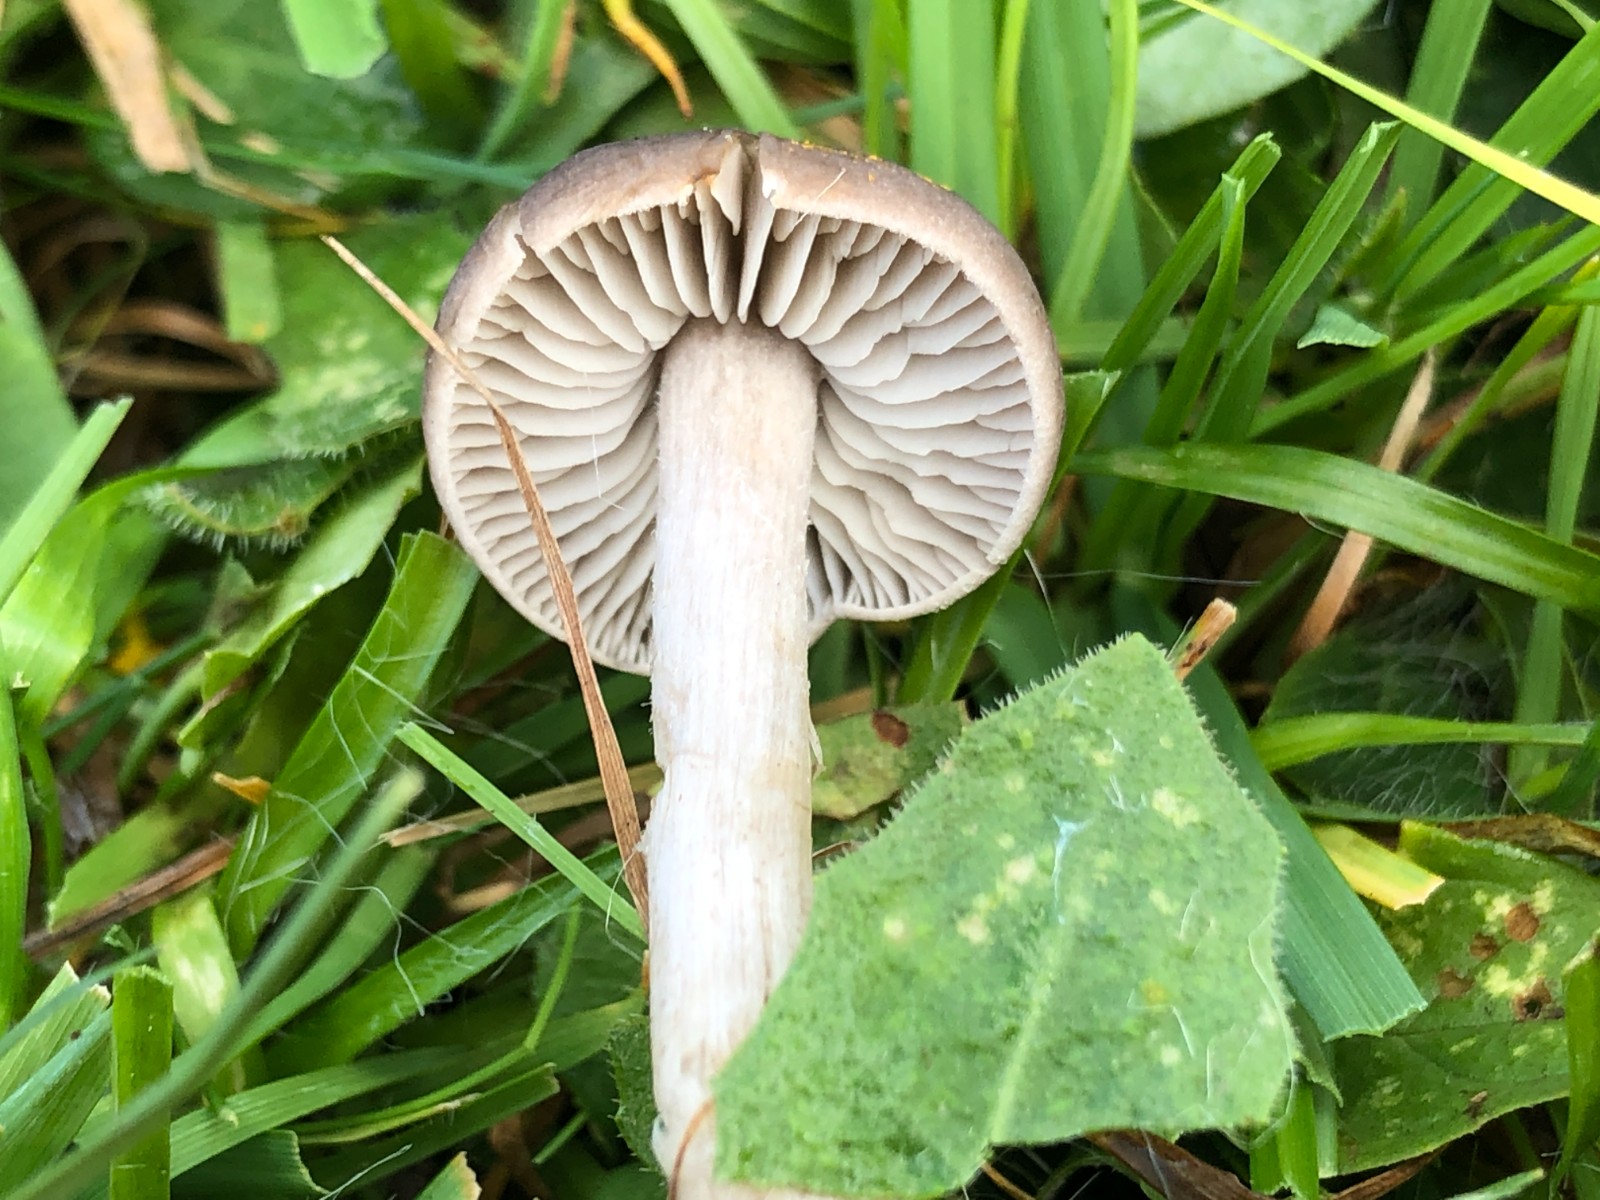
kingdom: Fungi
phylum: Basidiomycota
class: Agaricomycetes
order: Agaricales
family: Tricholomataceae
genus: Dermoloma
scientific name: Dermoloma
